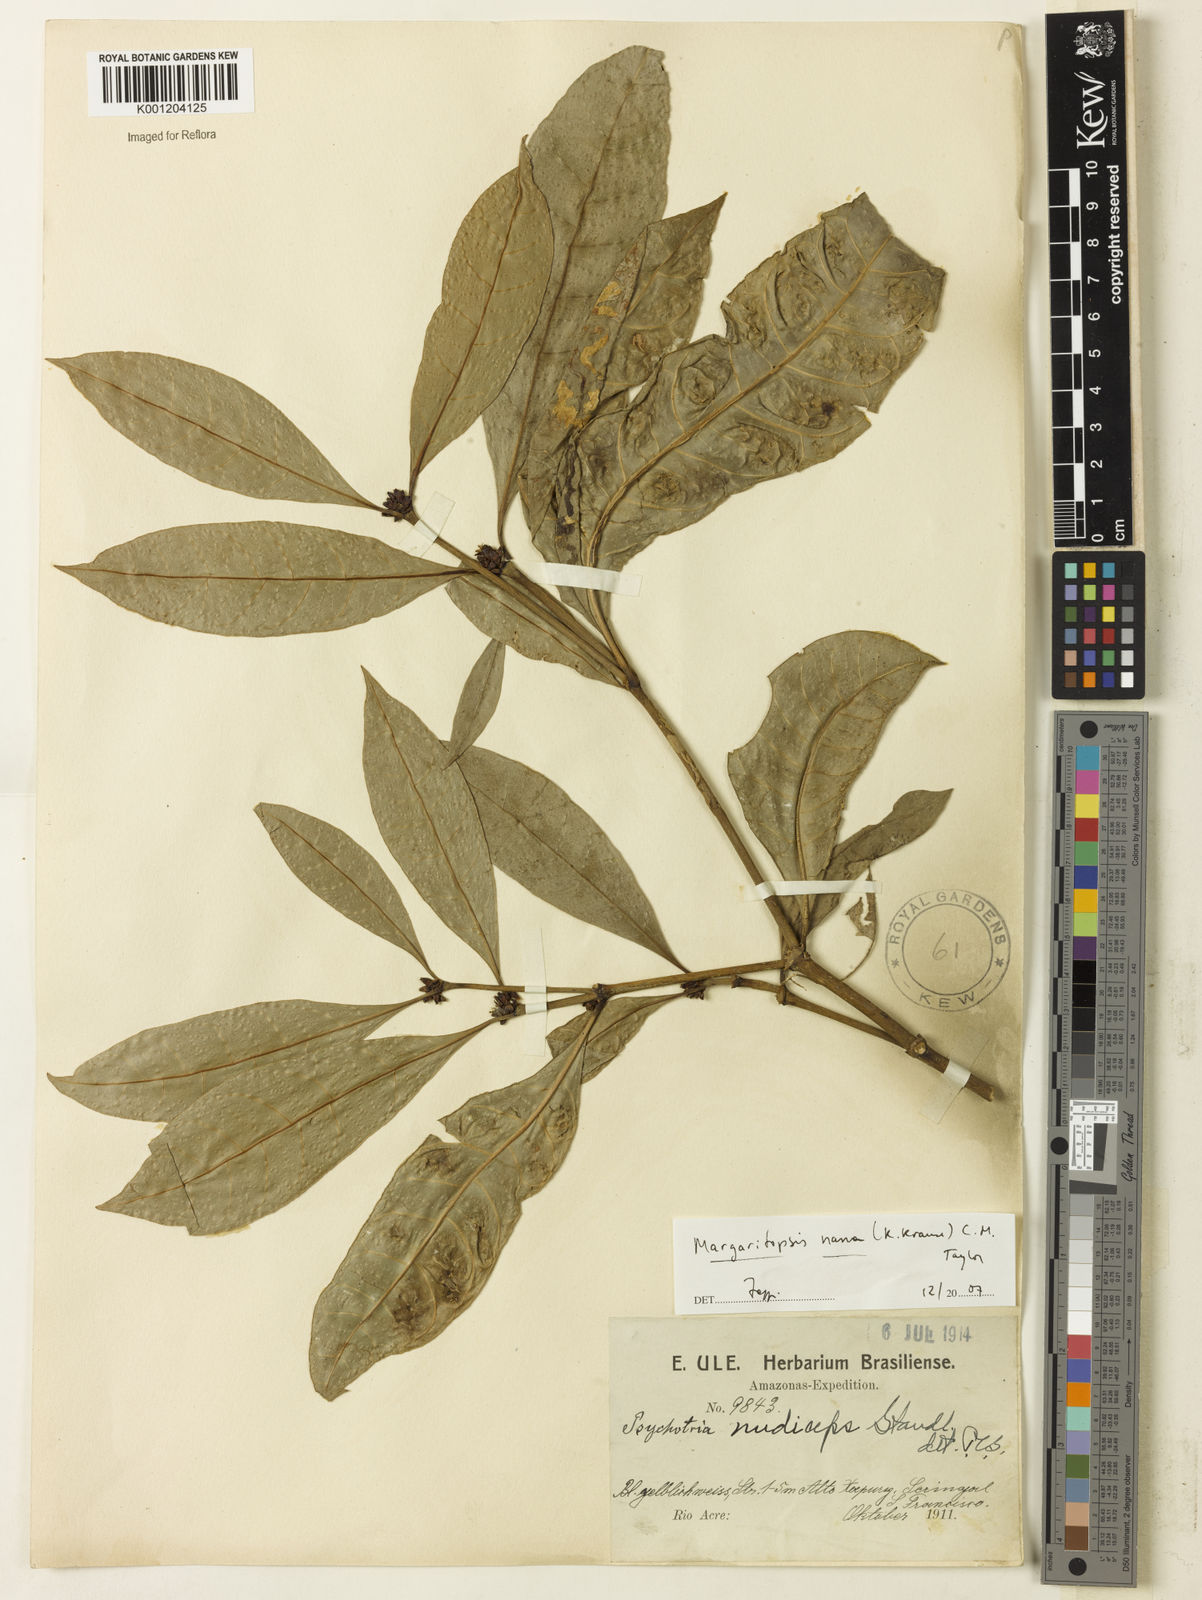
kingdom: Plantae
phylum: Tracheophyta
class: Magnoliopsida
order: Gentianales
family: Rubiaceae
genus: Eumachia
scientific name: Eumachia nana
